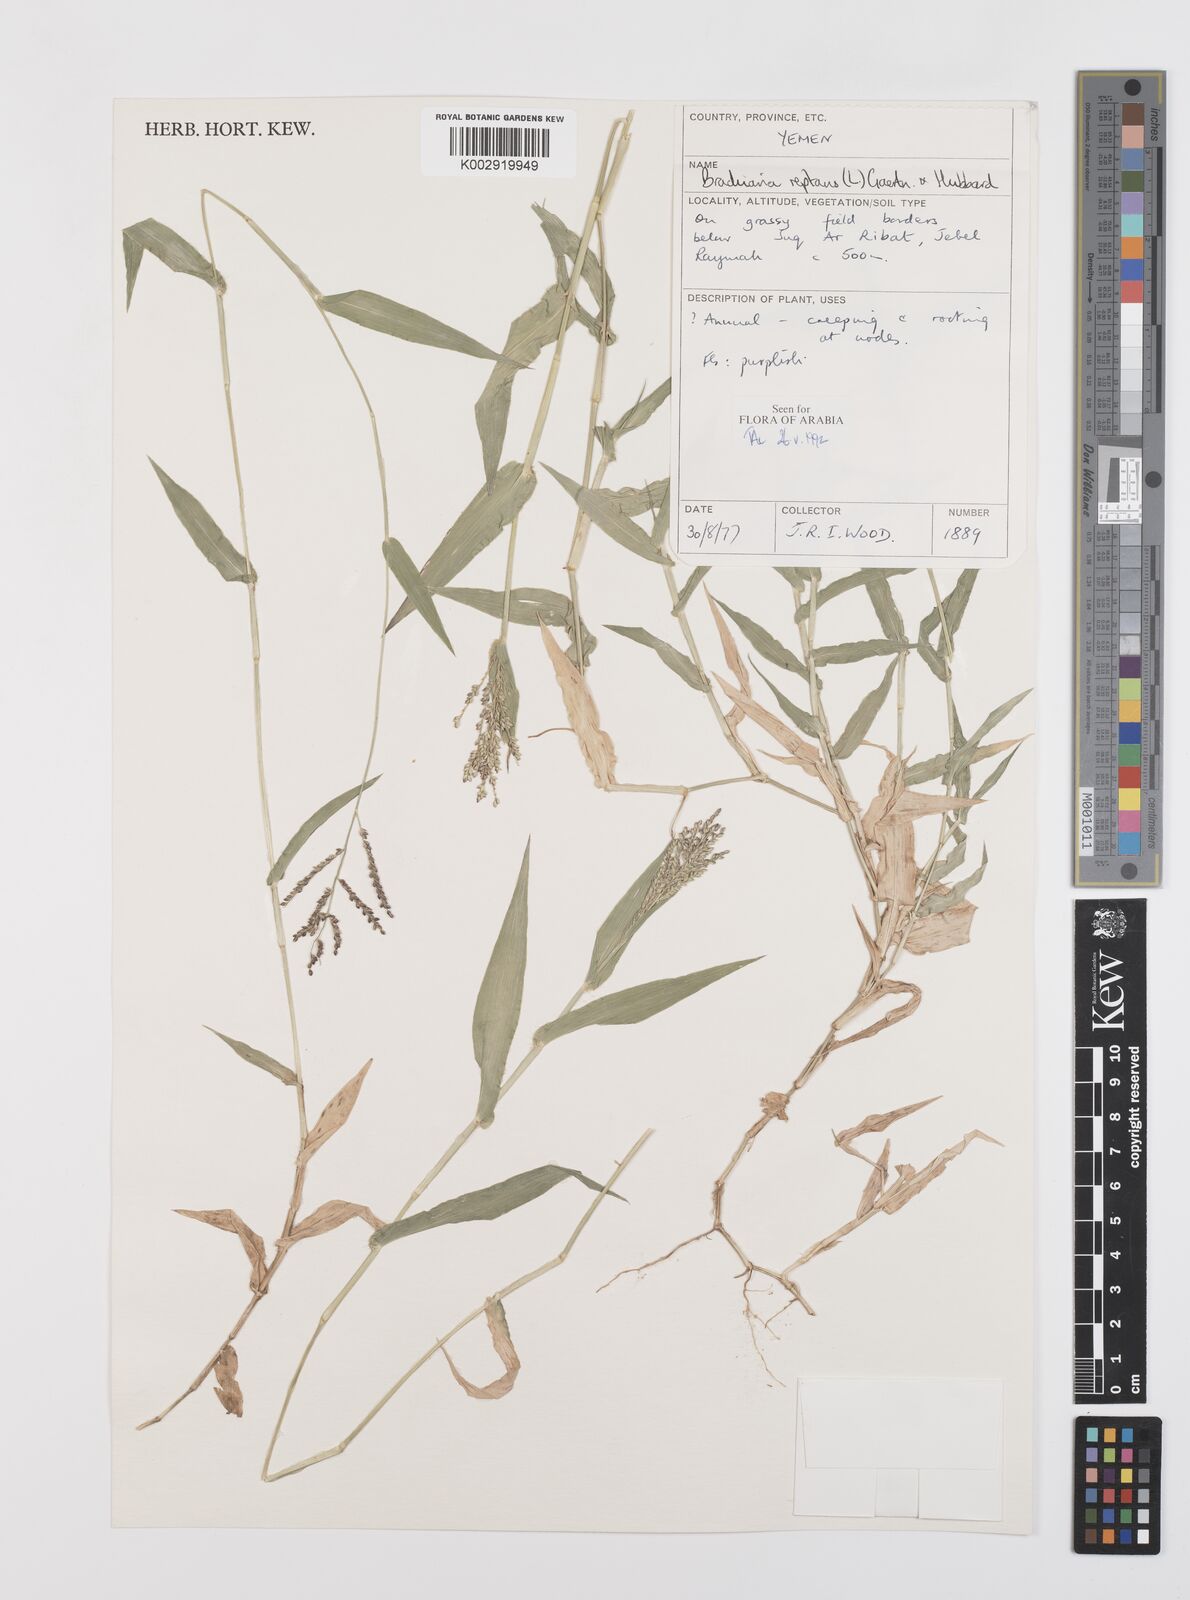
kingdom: Plantae
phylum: Tracheophyta
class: Liliopsida
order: Poales
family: Poaceae
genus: Urochloa
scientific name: Urochloa reptans
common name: Sprawling signalgrass
